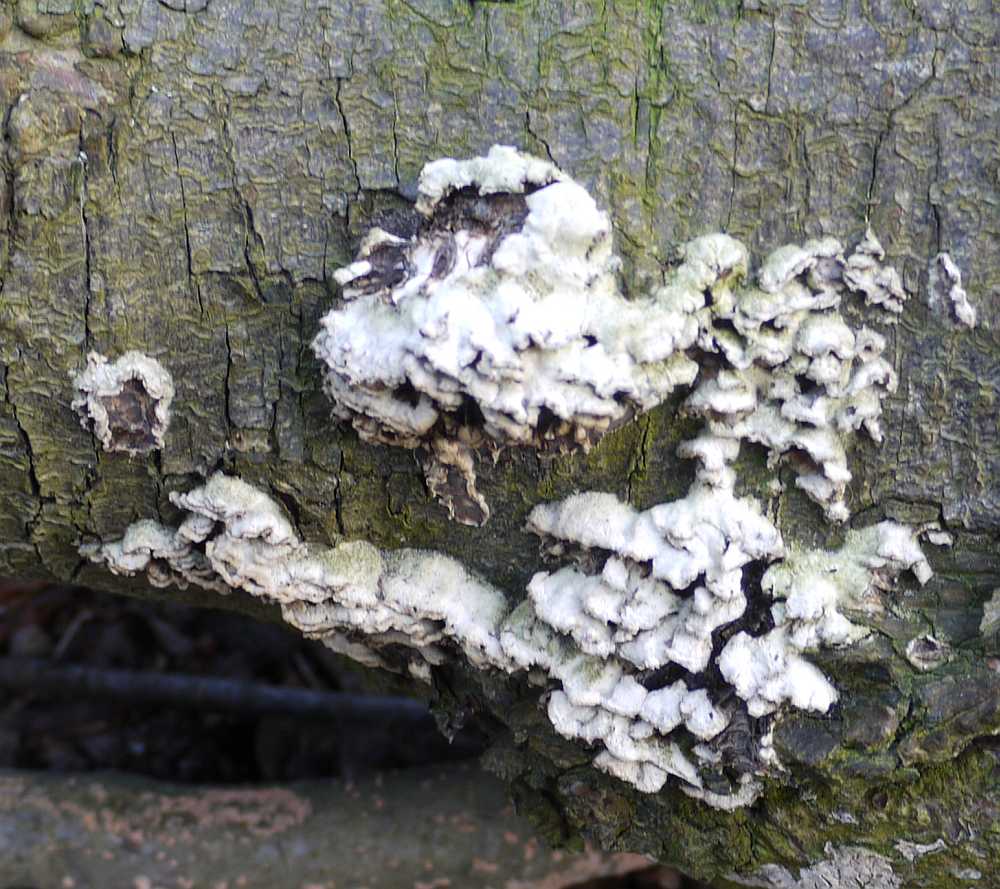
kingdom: Fungi
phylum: Basidiomycota
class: Agaricomycetes
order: Agaricales
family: Cyphellaceae
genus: Chondrostereum
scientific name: Chondrostereum purpureum
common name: purpurlædersvamp
